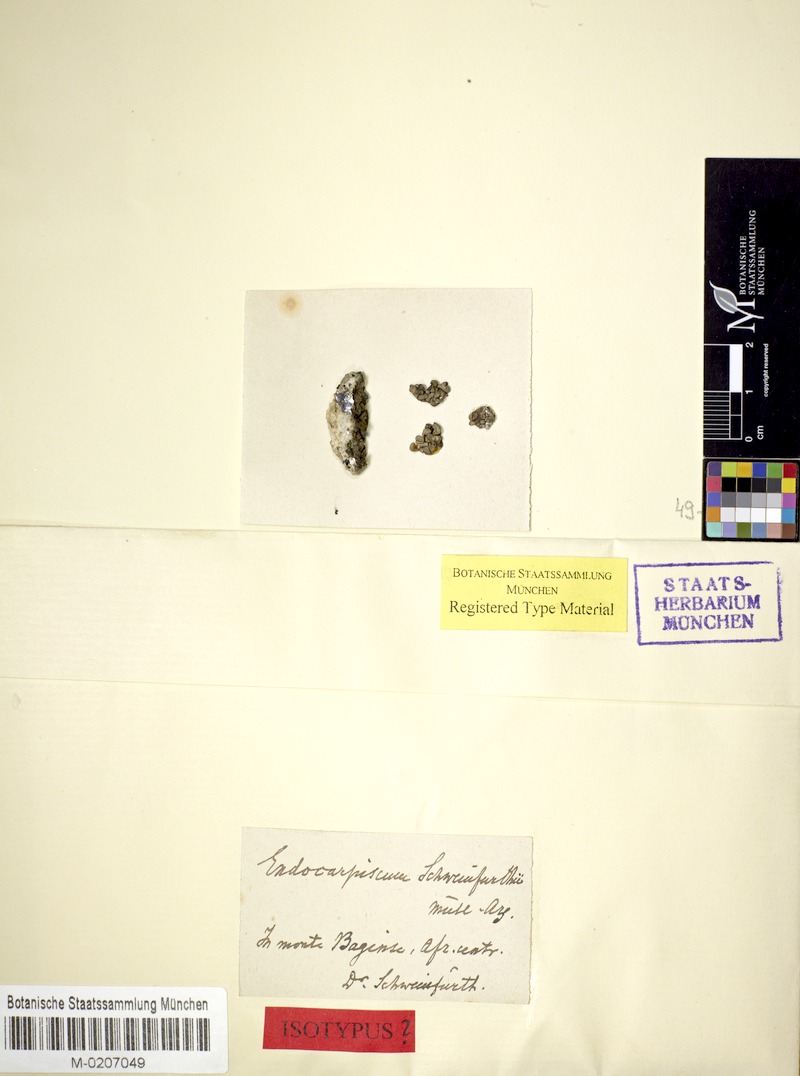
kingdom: Fungi
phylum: Ascomycota
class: Lichinomycetes
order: Lichinales
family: Lichinaceae
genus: Heppia
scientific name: Heppia
